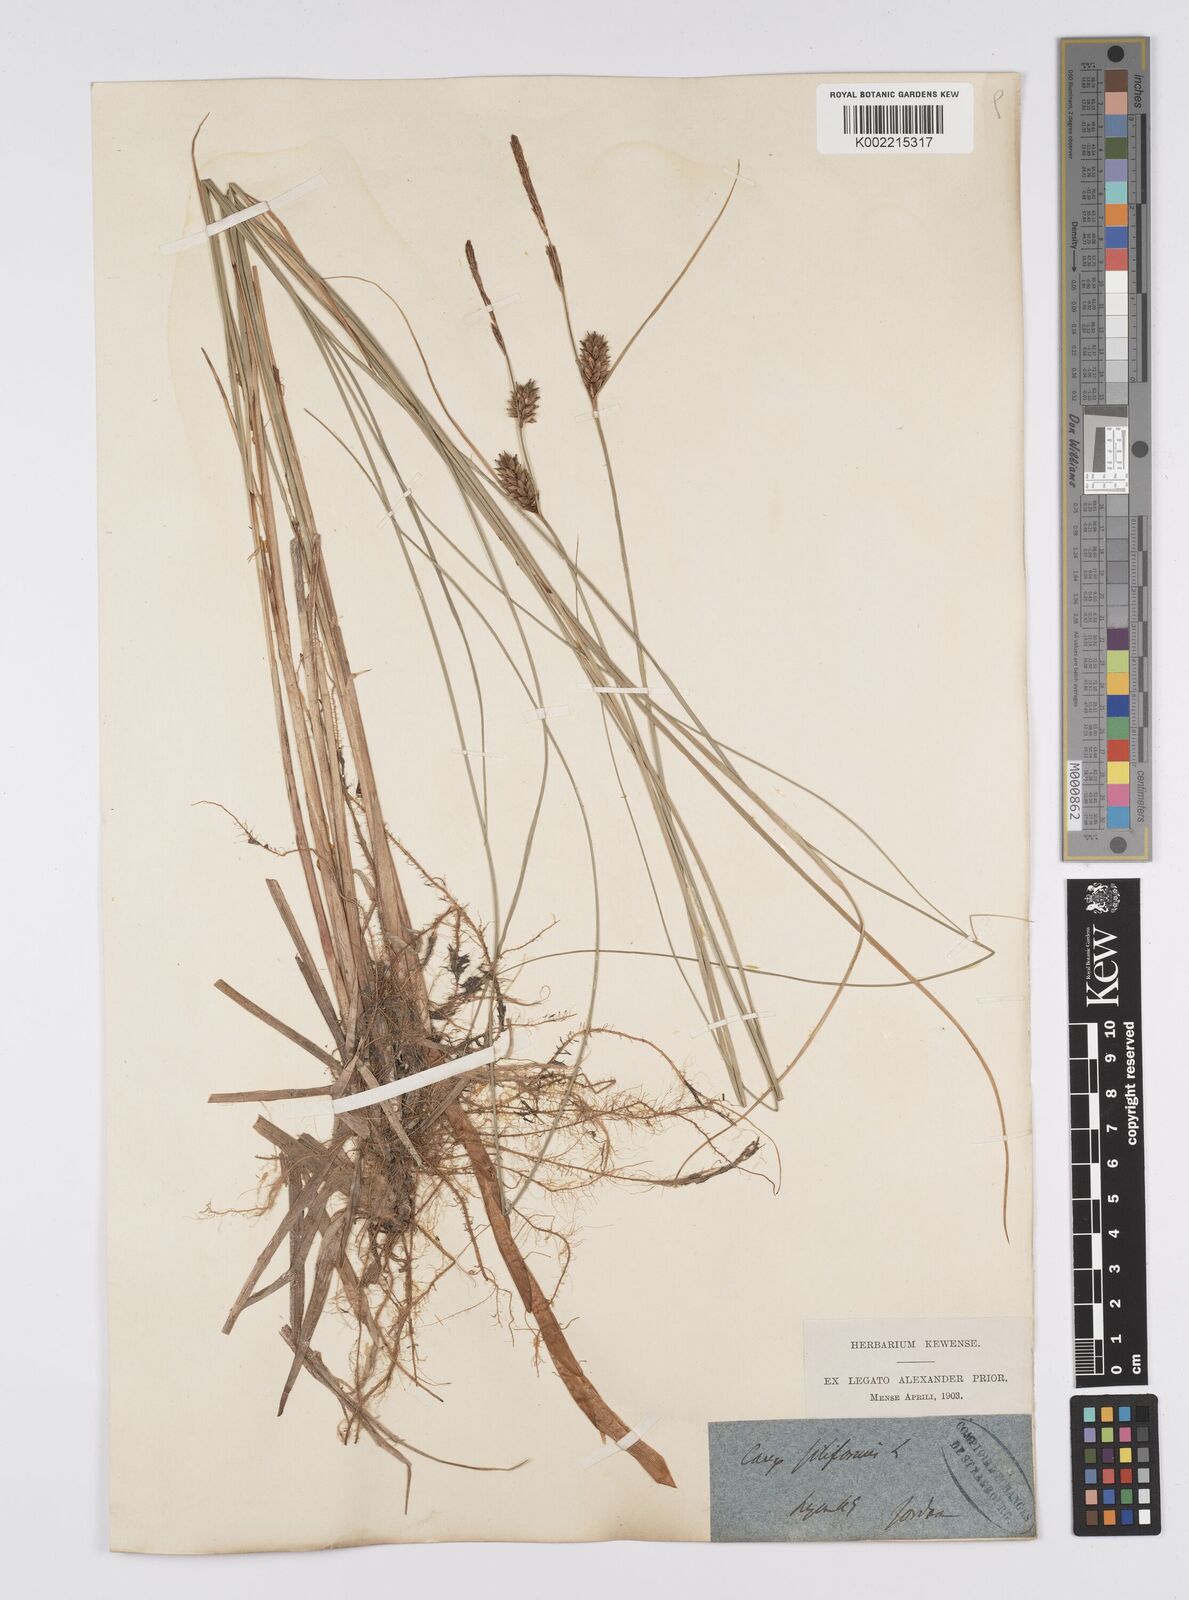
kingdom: Plantae
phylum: Tracheophyta
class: Liliopsida
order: Poales
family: Cyperaceae
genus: Carex
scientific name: Carex lasiocarpa
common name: Slender sedge
